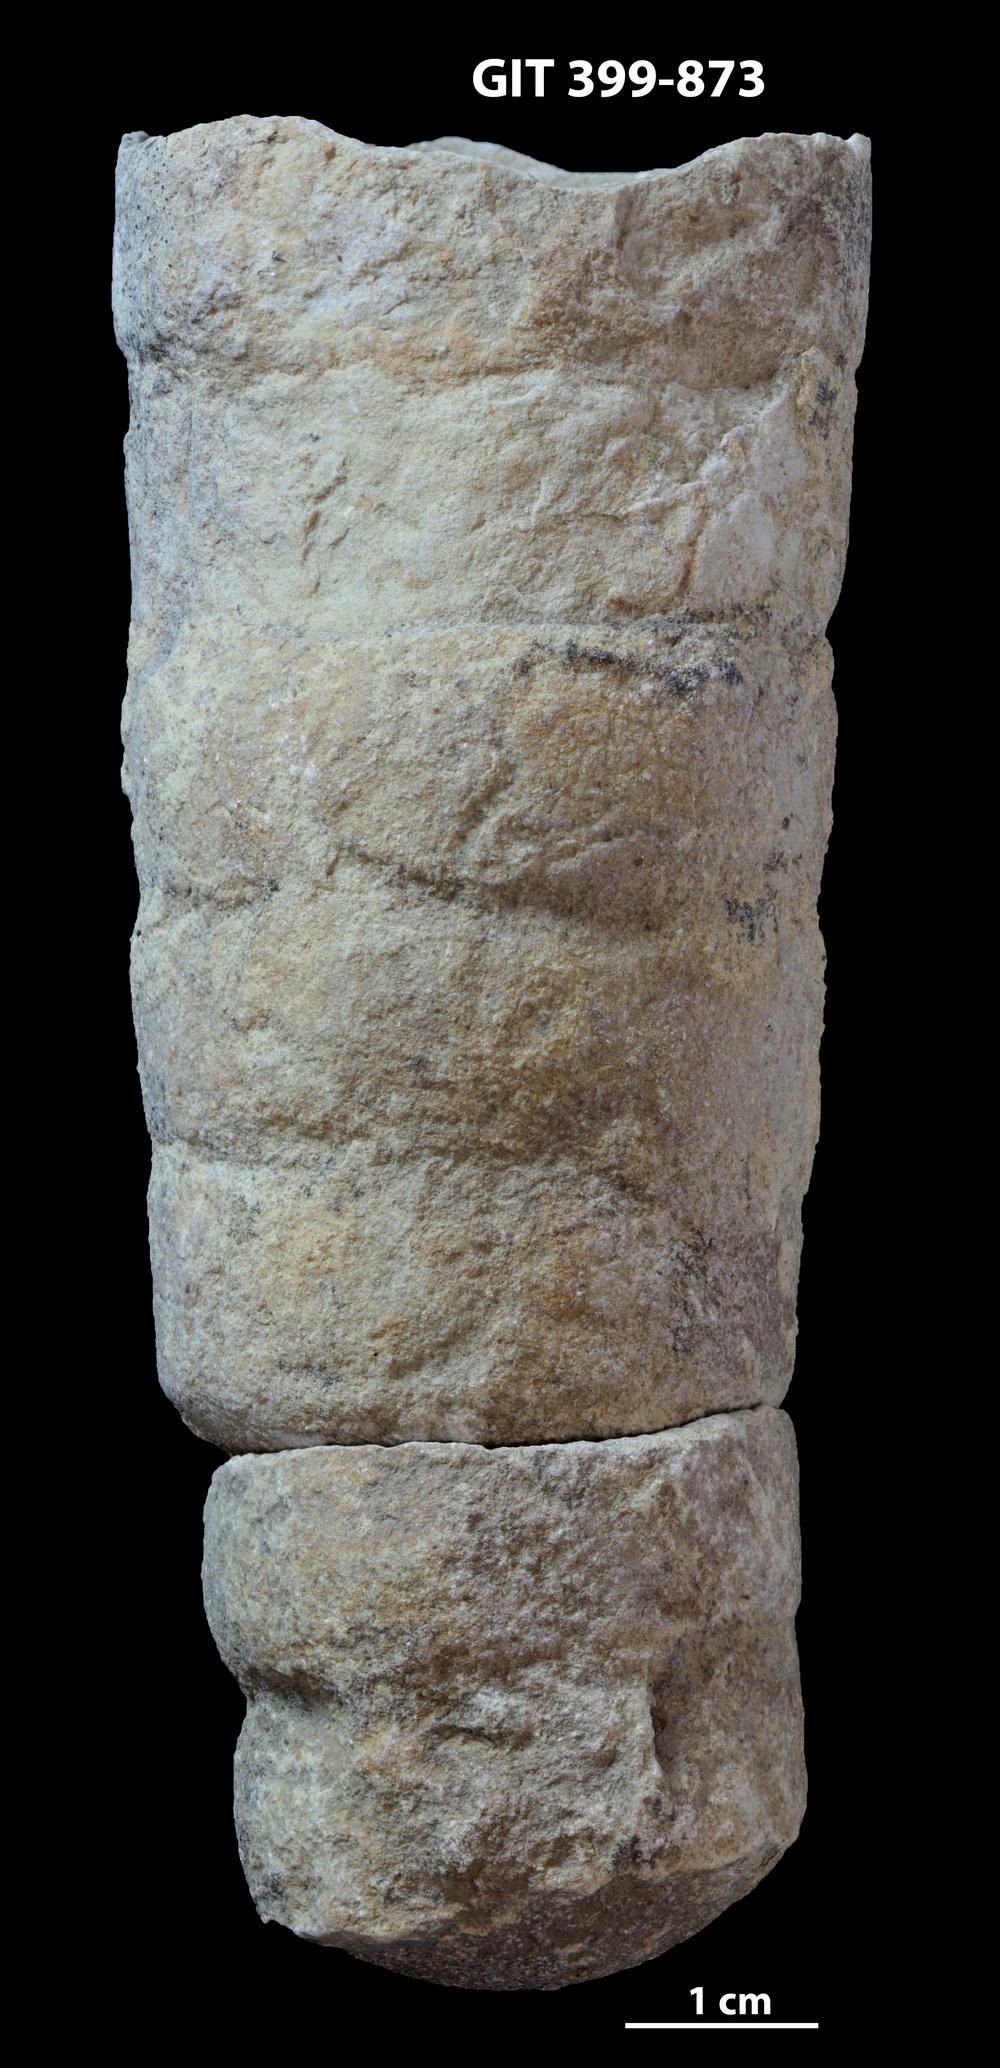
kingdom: Animalia
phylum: Mollusca
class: Cephalopoda
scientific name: Cephalopoda
